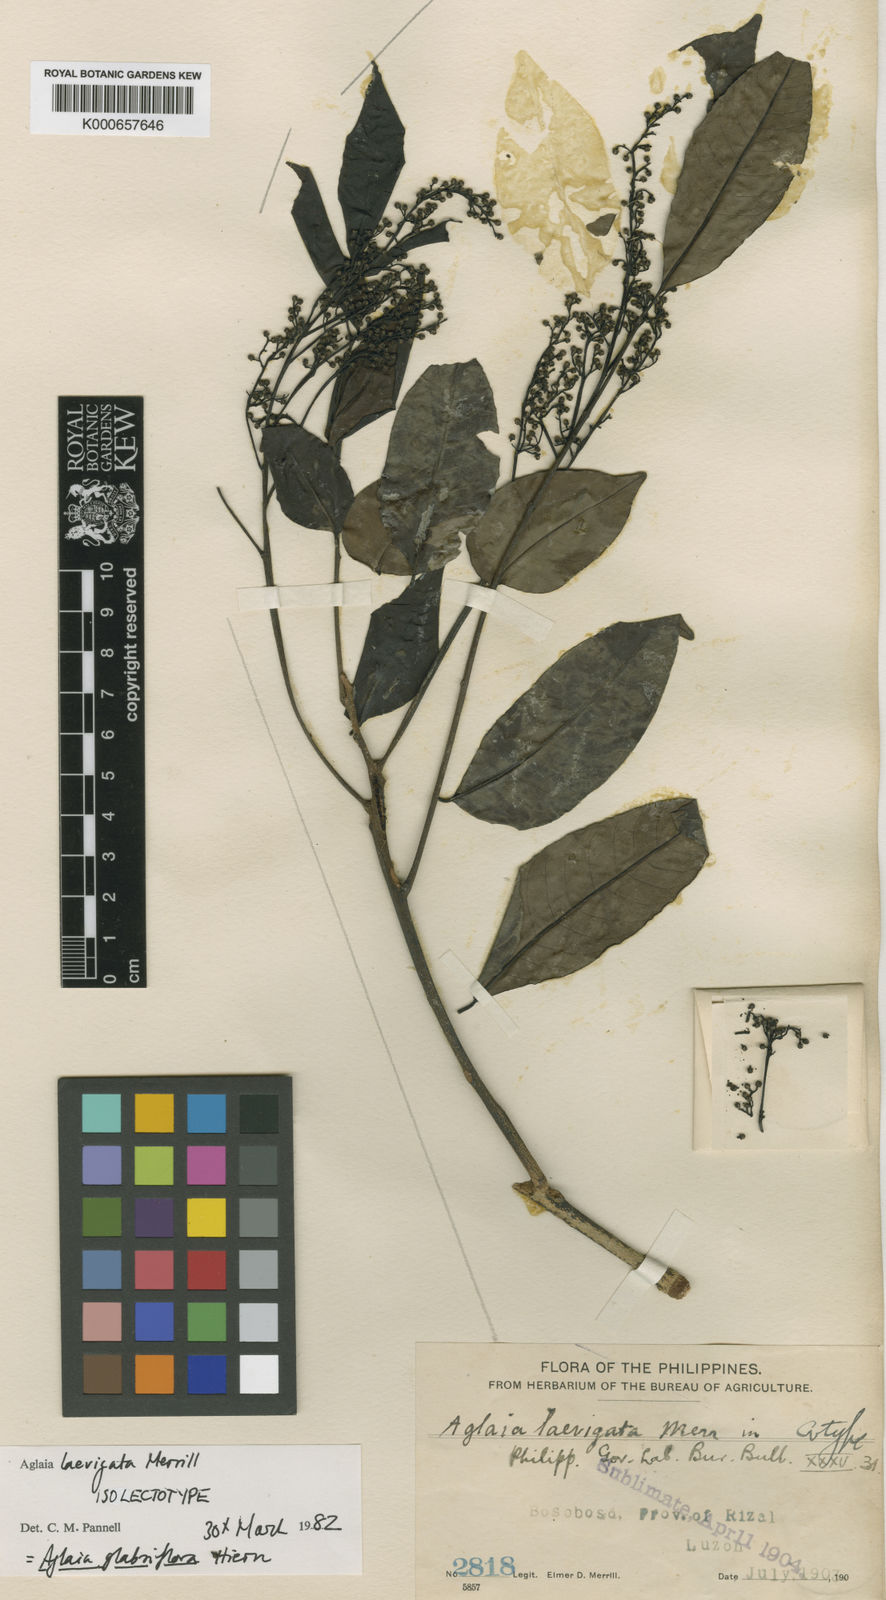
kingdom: Plantae
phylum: Tracheophyta
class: Magnoliopsida
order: Sapindales
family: Meliaceae
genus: Aglaia
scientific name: Aglaia leptantha
